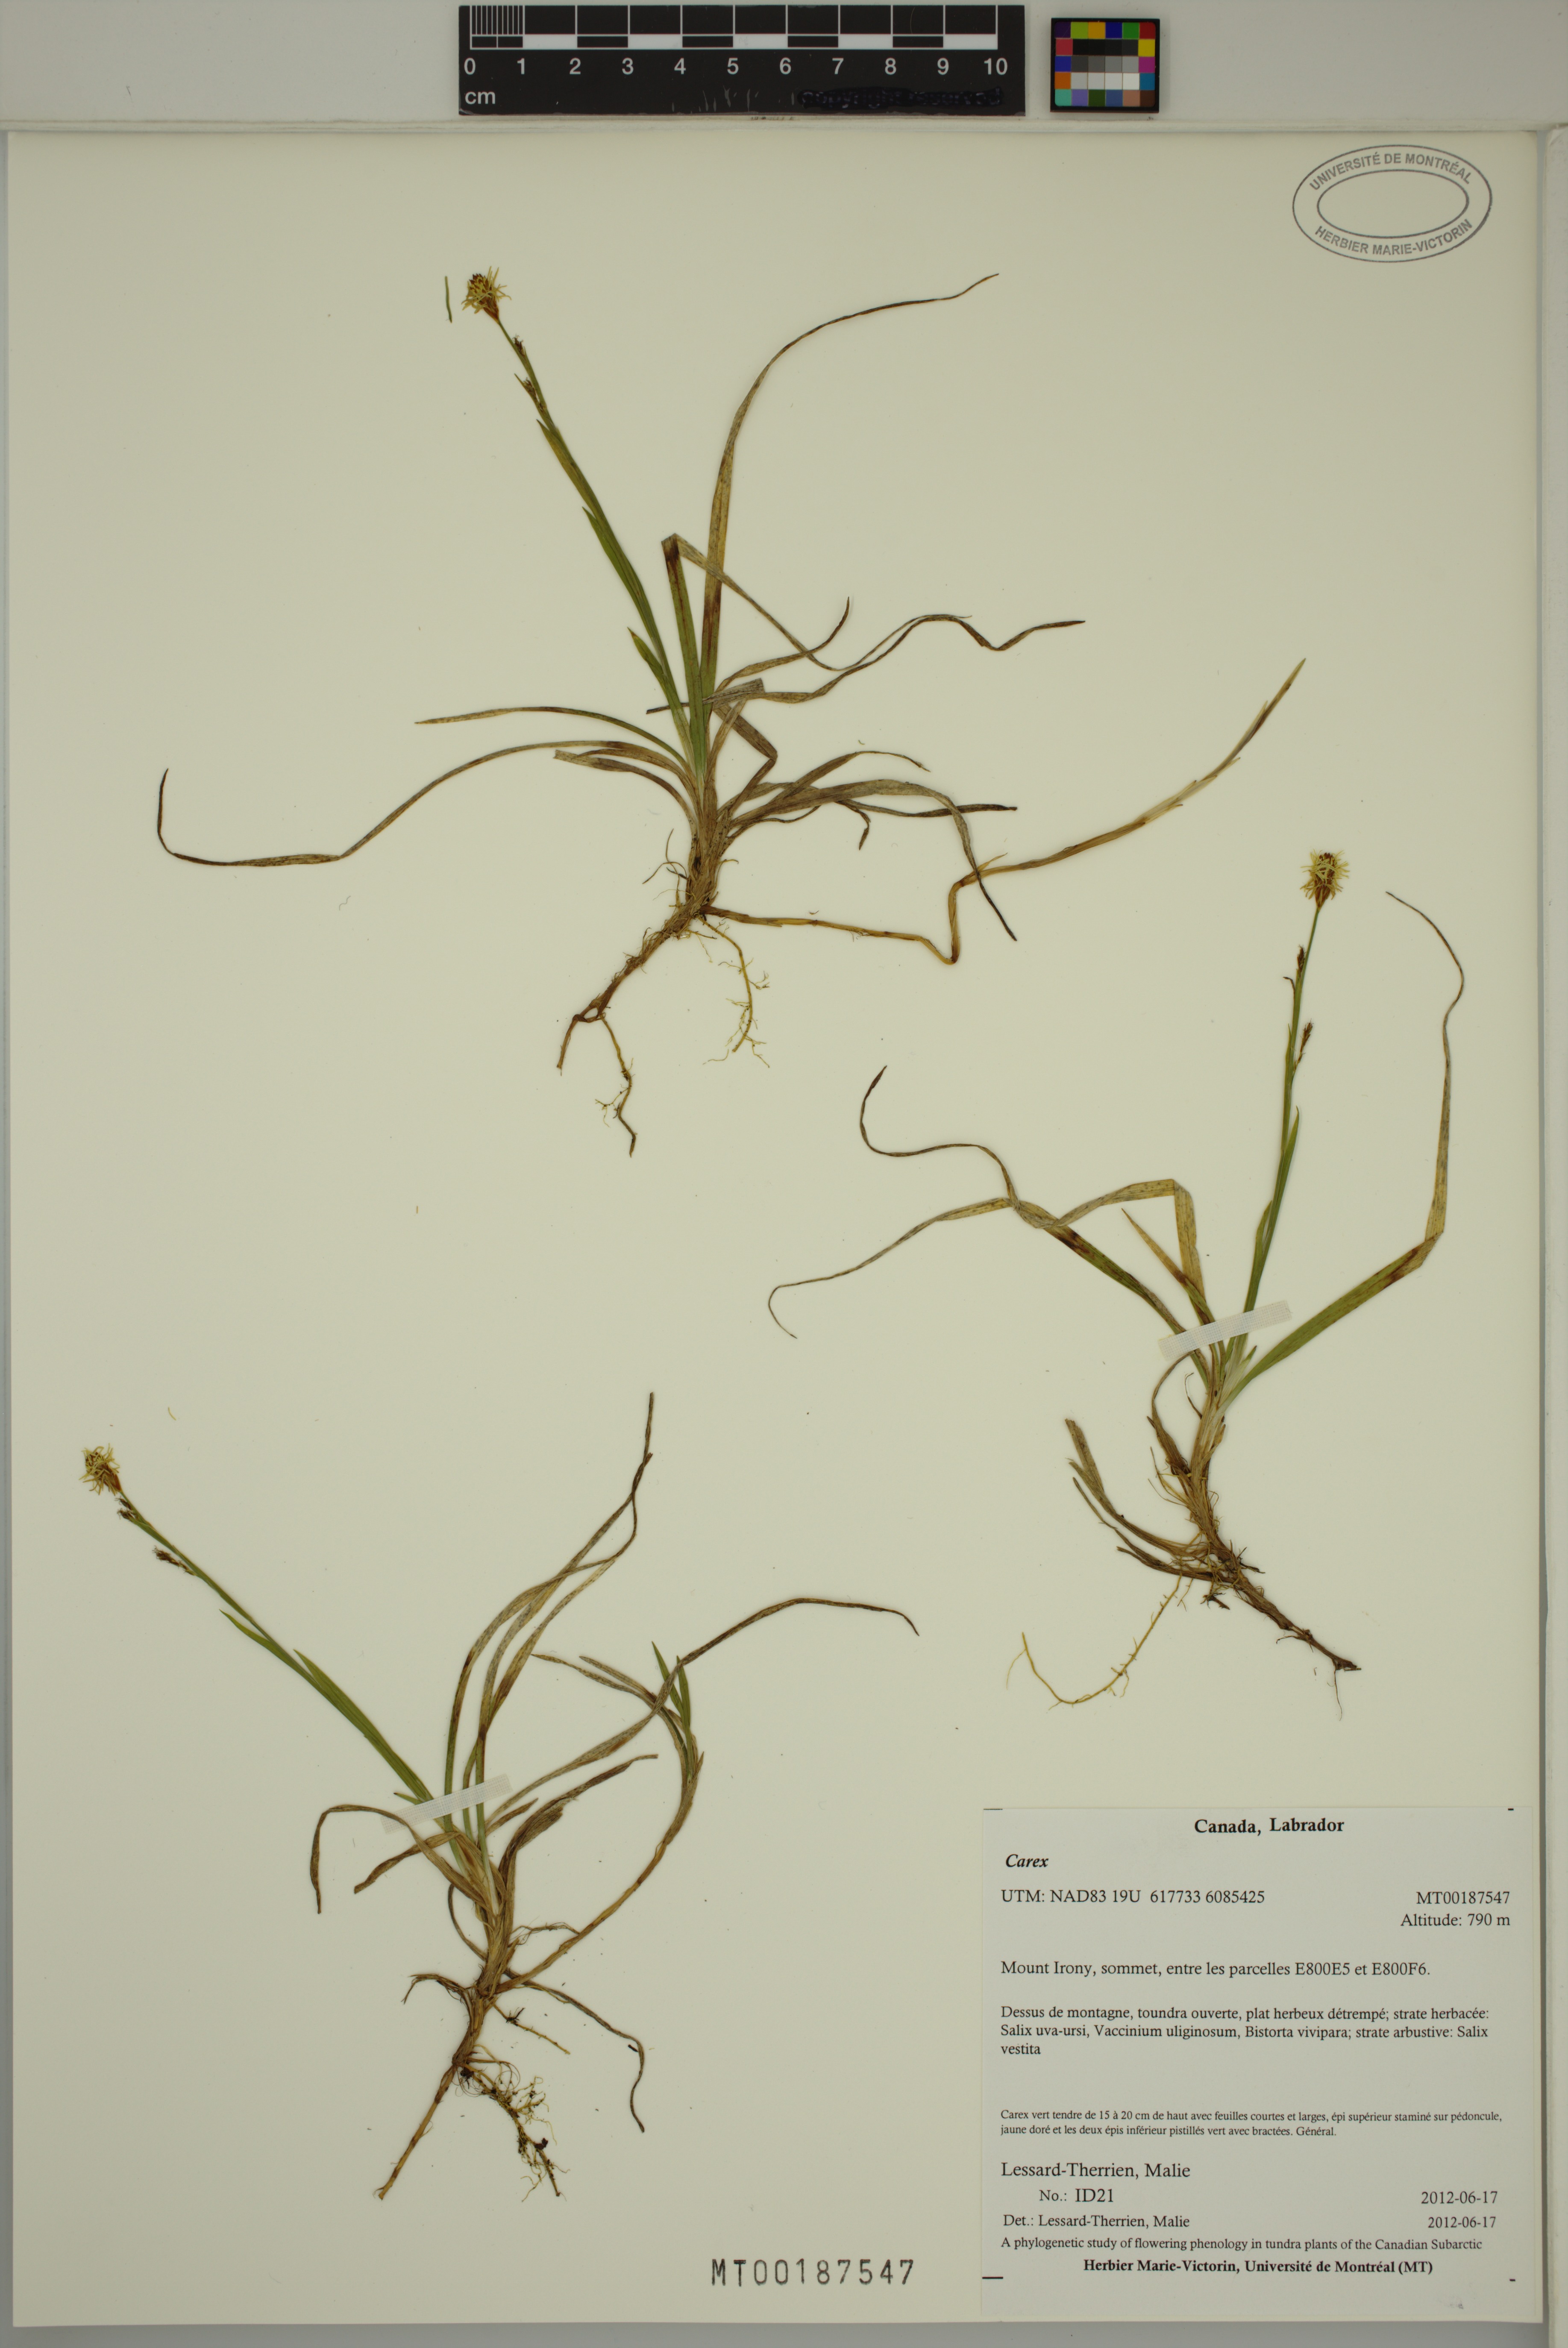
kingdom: Plantae
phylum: Tracheophyta
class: Liliopsida
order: Poales
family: Cyperaceae
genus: Carex
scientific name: Carex
